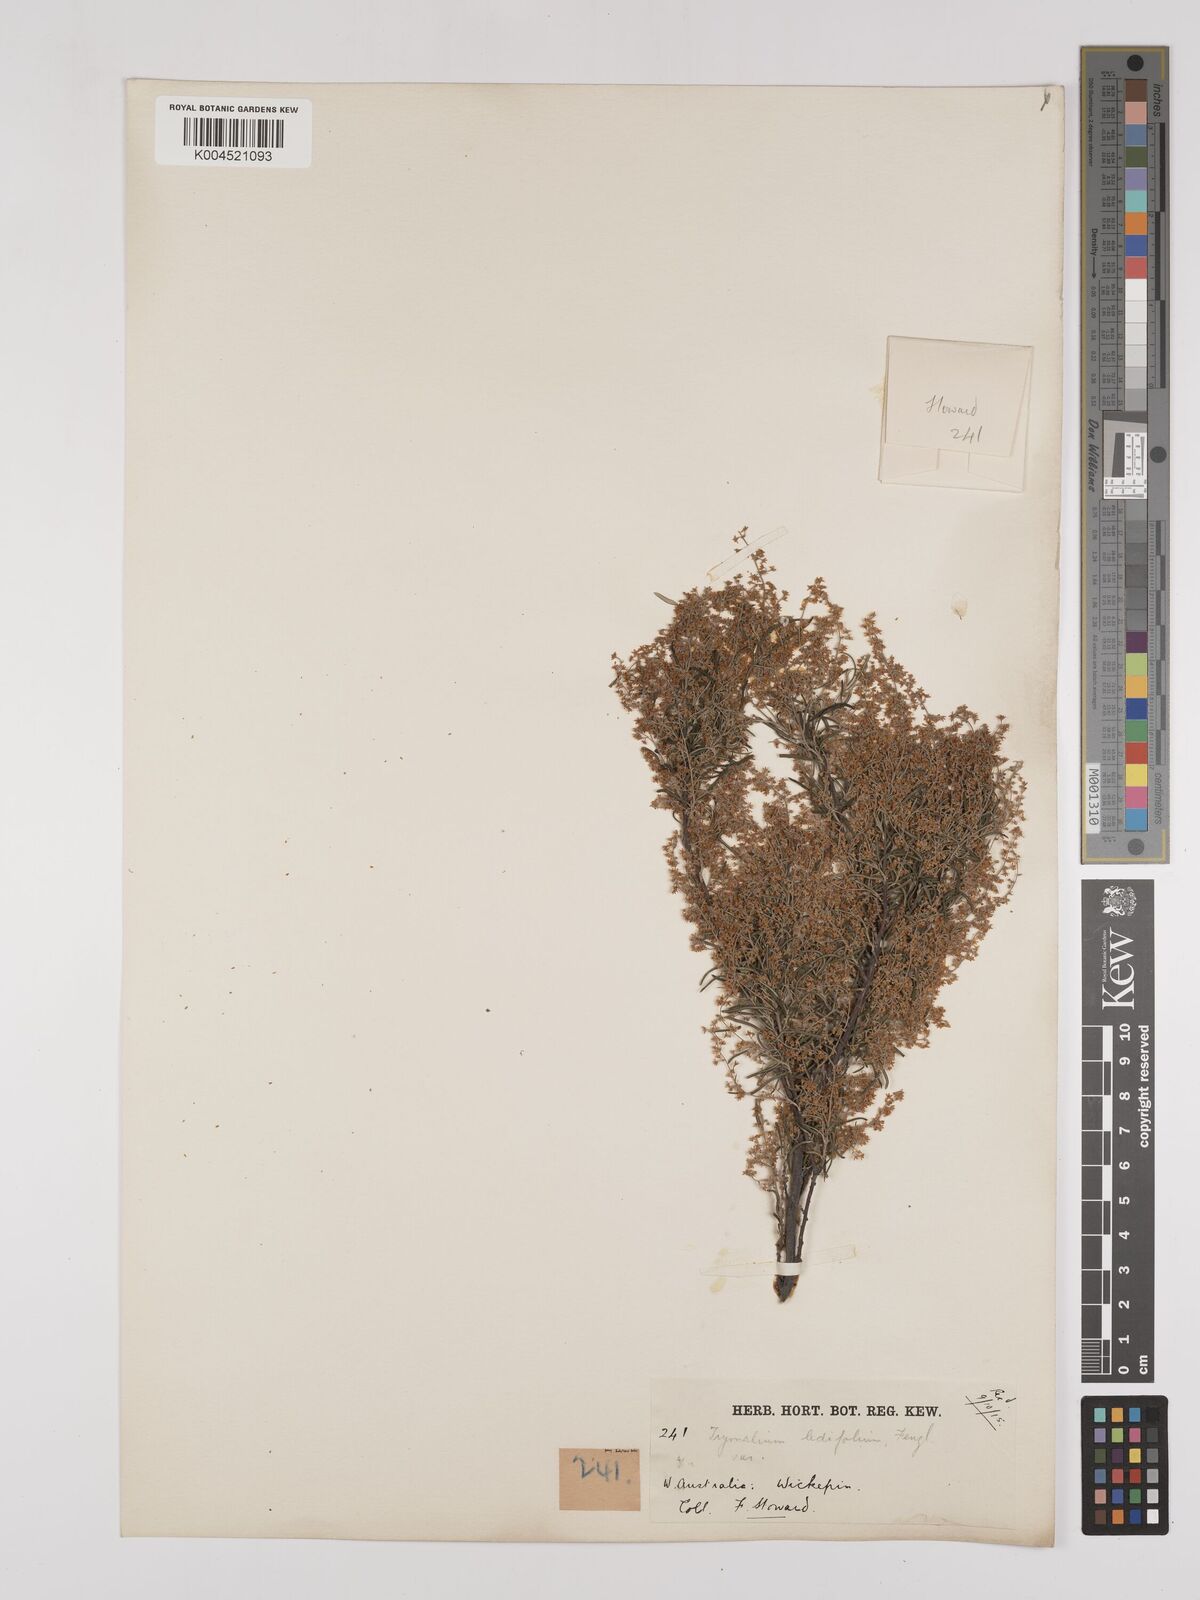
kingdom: Plantae
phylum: Tracheophyta
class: Magnoliopsida
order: Rosales
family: Rhamnaceae
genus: Trymalium
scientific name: Trymalium ledifolium
